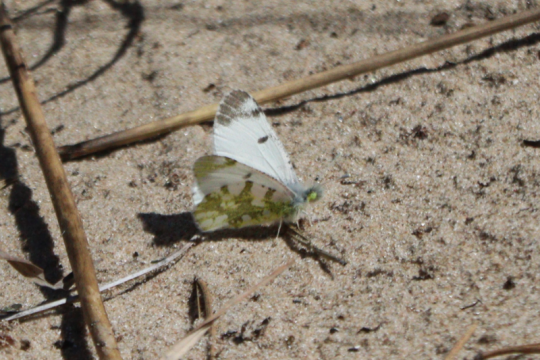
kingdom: Animalia
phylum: Arthropoda
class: Insecta
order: Lepidoptera
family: Pieridae
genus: Euchloe
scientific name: Euchloe olympia
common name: Olympia Marble
